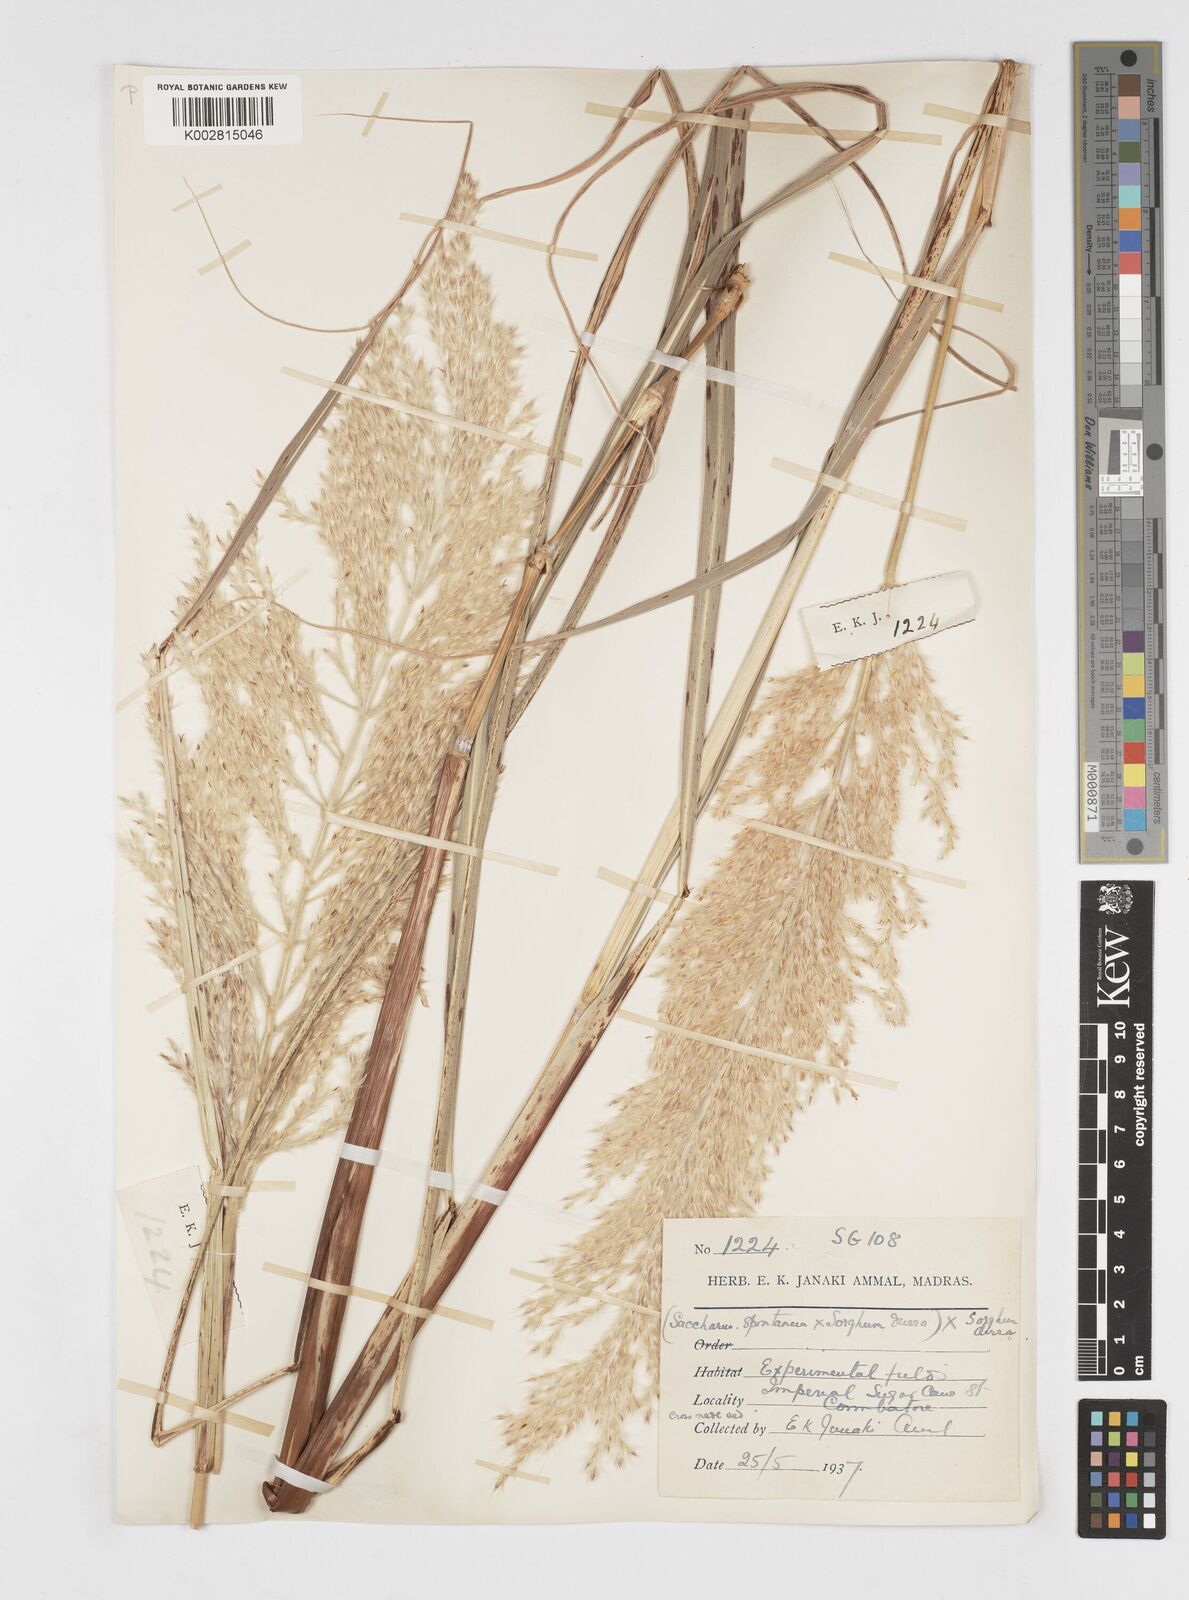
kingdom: Plantae
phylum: Tracheophyta
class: Liliopsida
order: Poales
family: Poaceae
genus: Saccharum
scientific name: Saccharum
